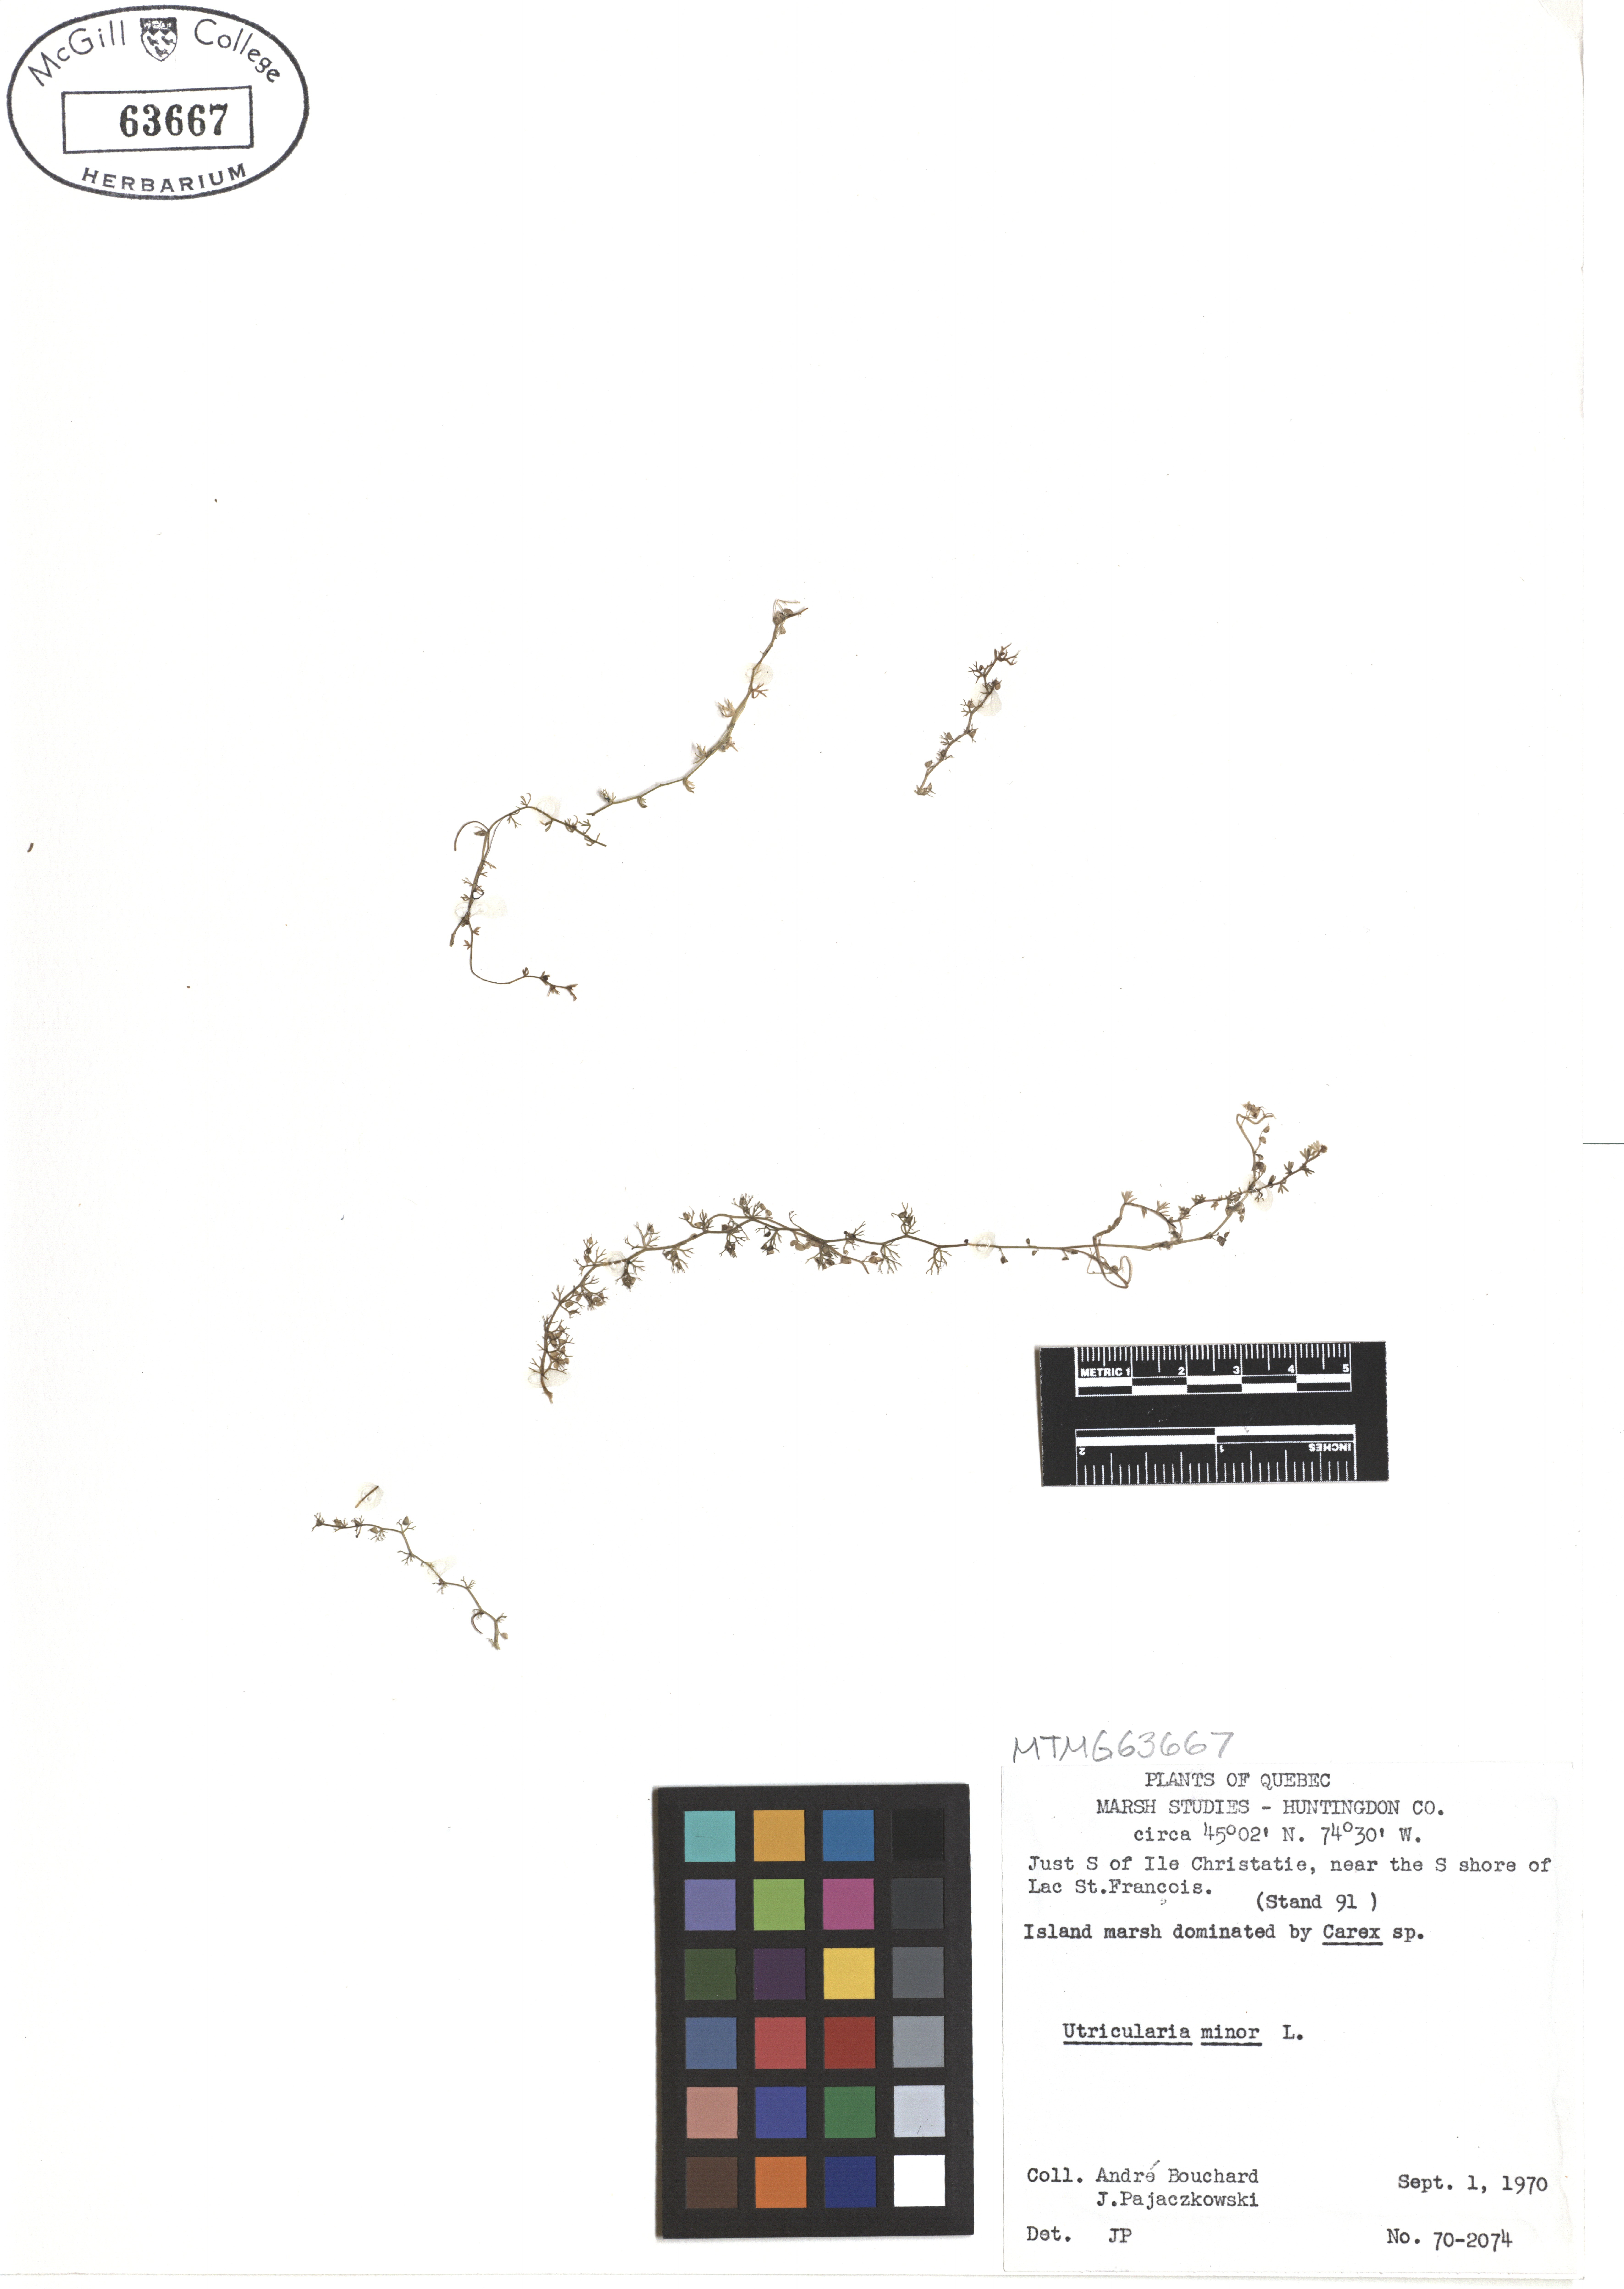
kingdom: Plantae
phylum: Tracheophyta
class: Magnoliopsida
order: Lamiales
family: Lentibulariaceae
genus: Utricularia
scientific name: Utricularia minor
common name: Lesser bladderwort
